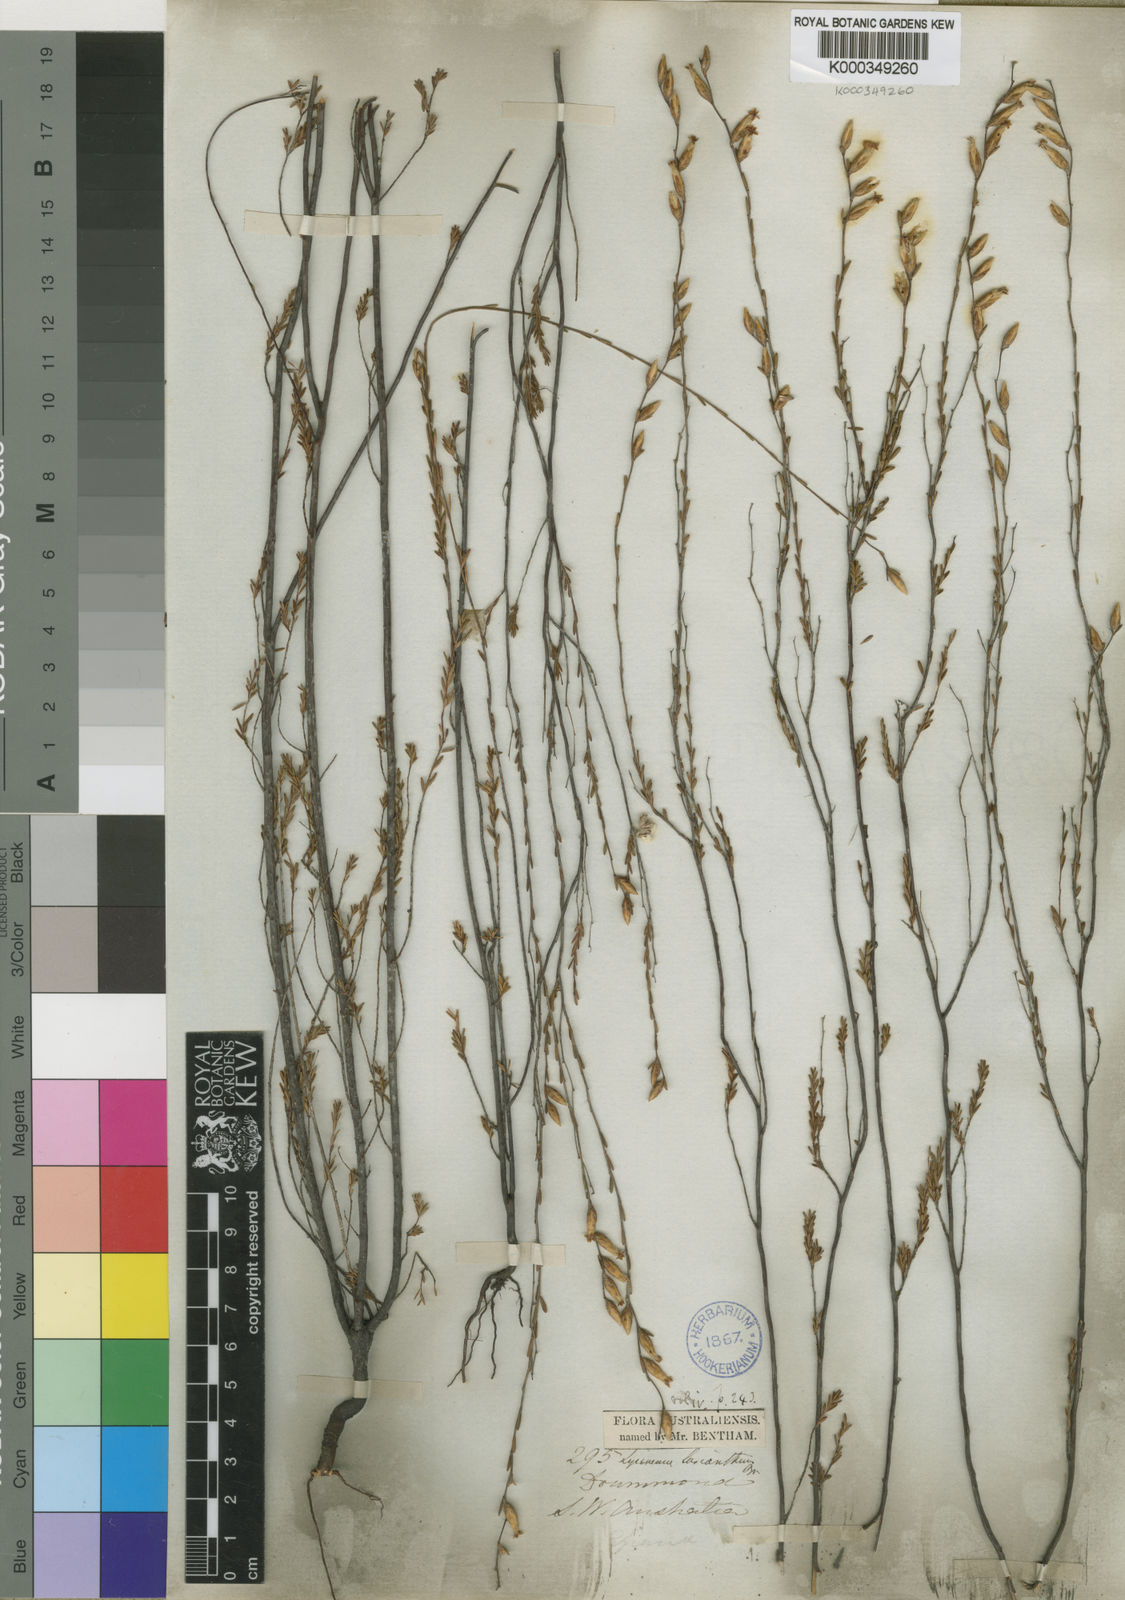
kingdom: Plantae
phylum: Tracheophyta
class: Magnoliopsida
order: Ericales
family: Ericaceae
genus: Lysinema
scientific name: Lysinema lasianthum
